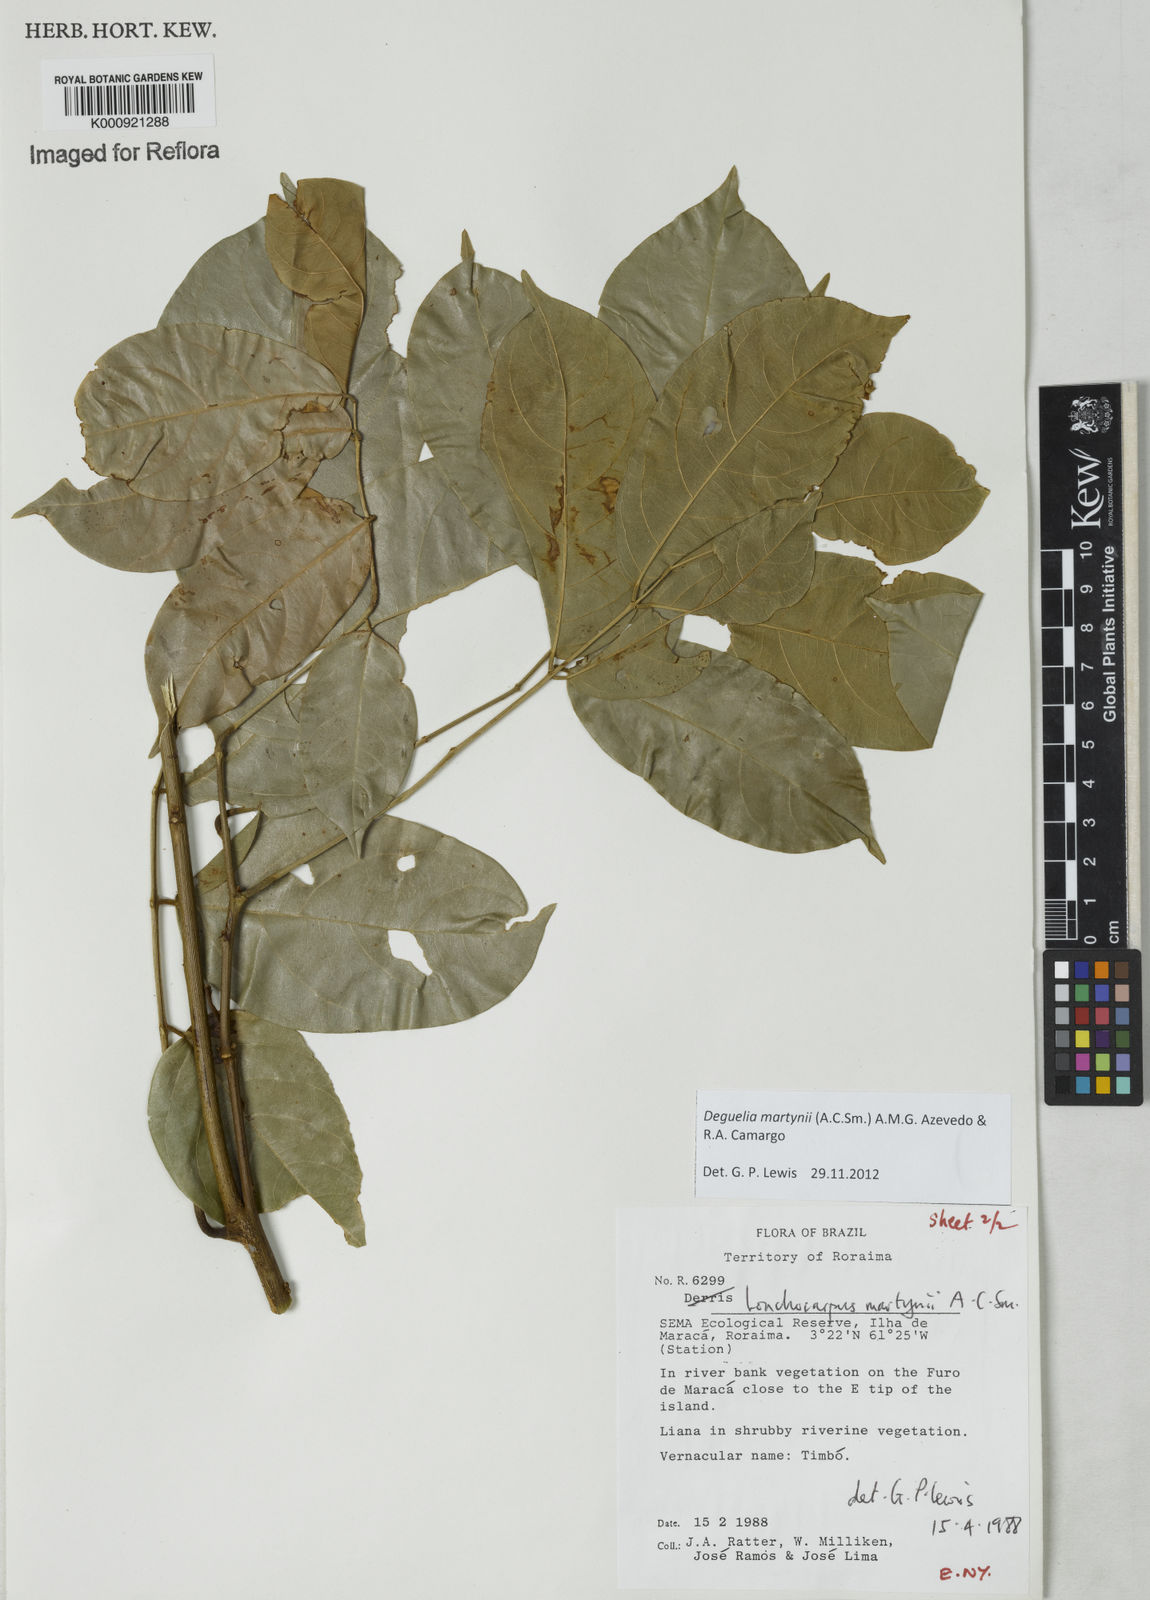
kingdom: Plantae
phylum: Tracheophyta
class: Magnoliopsida
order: Fabales
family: Fabaceae
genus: Deguelia
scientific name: Deguelia
